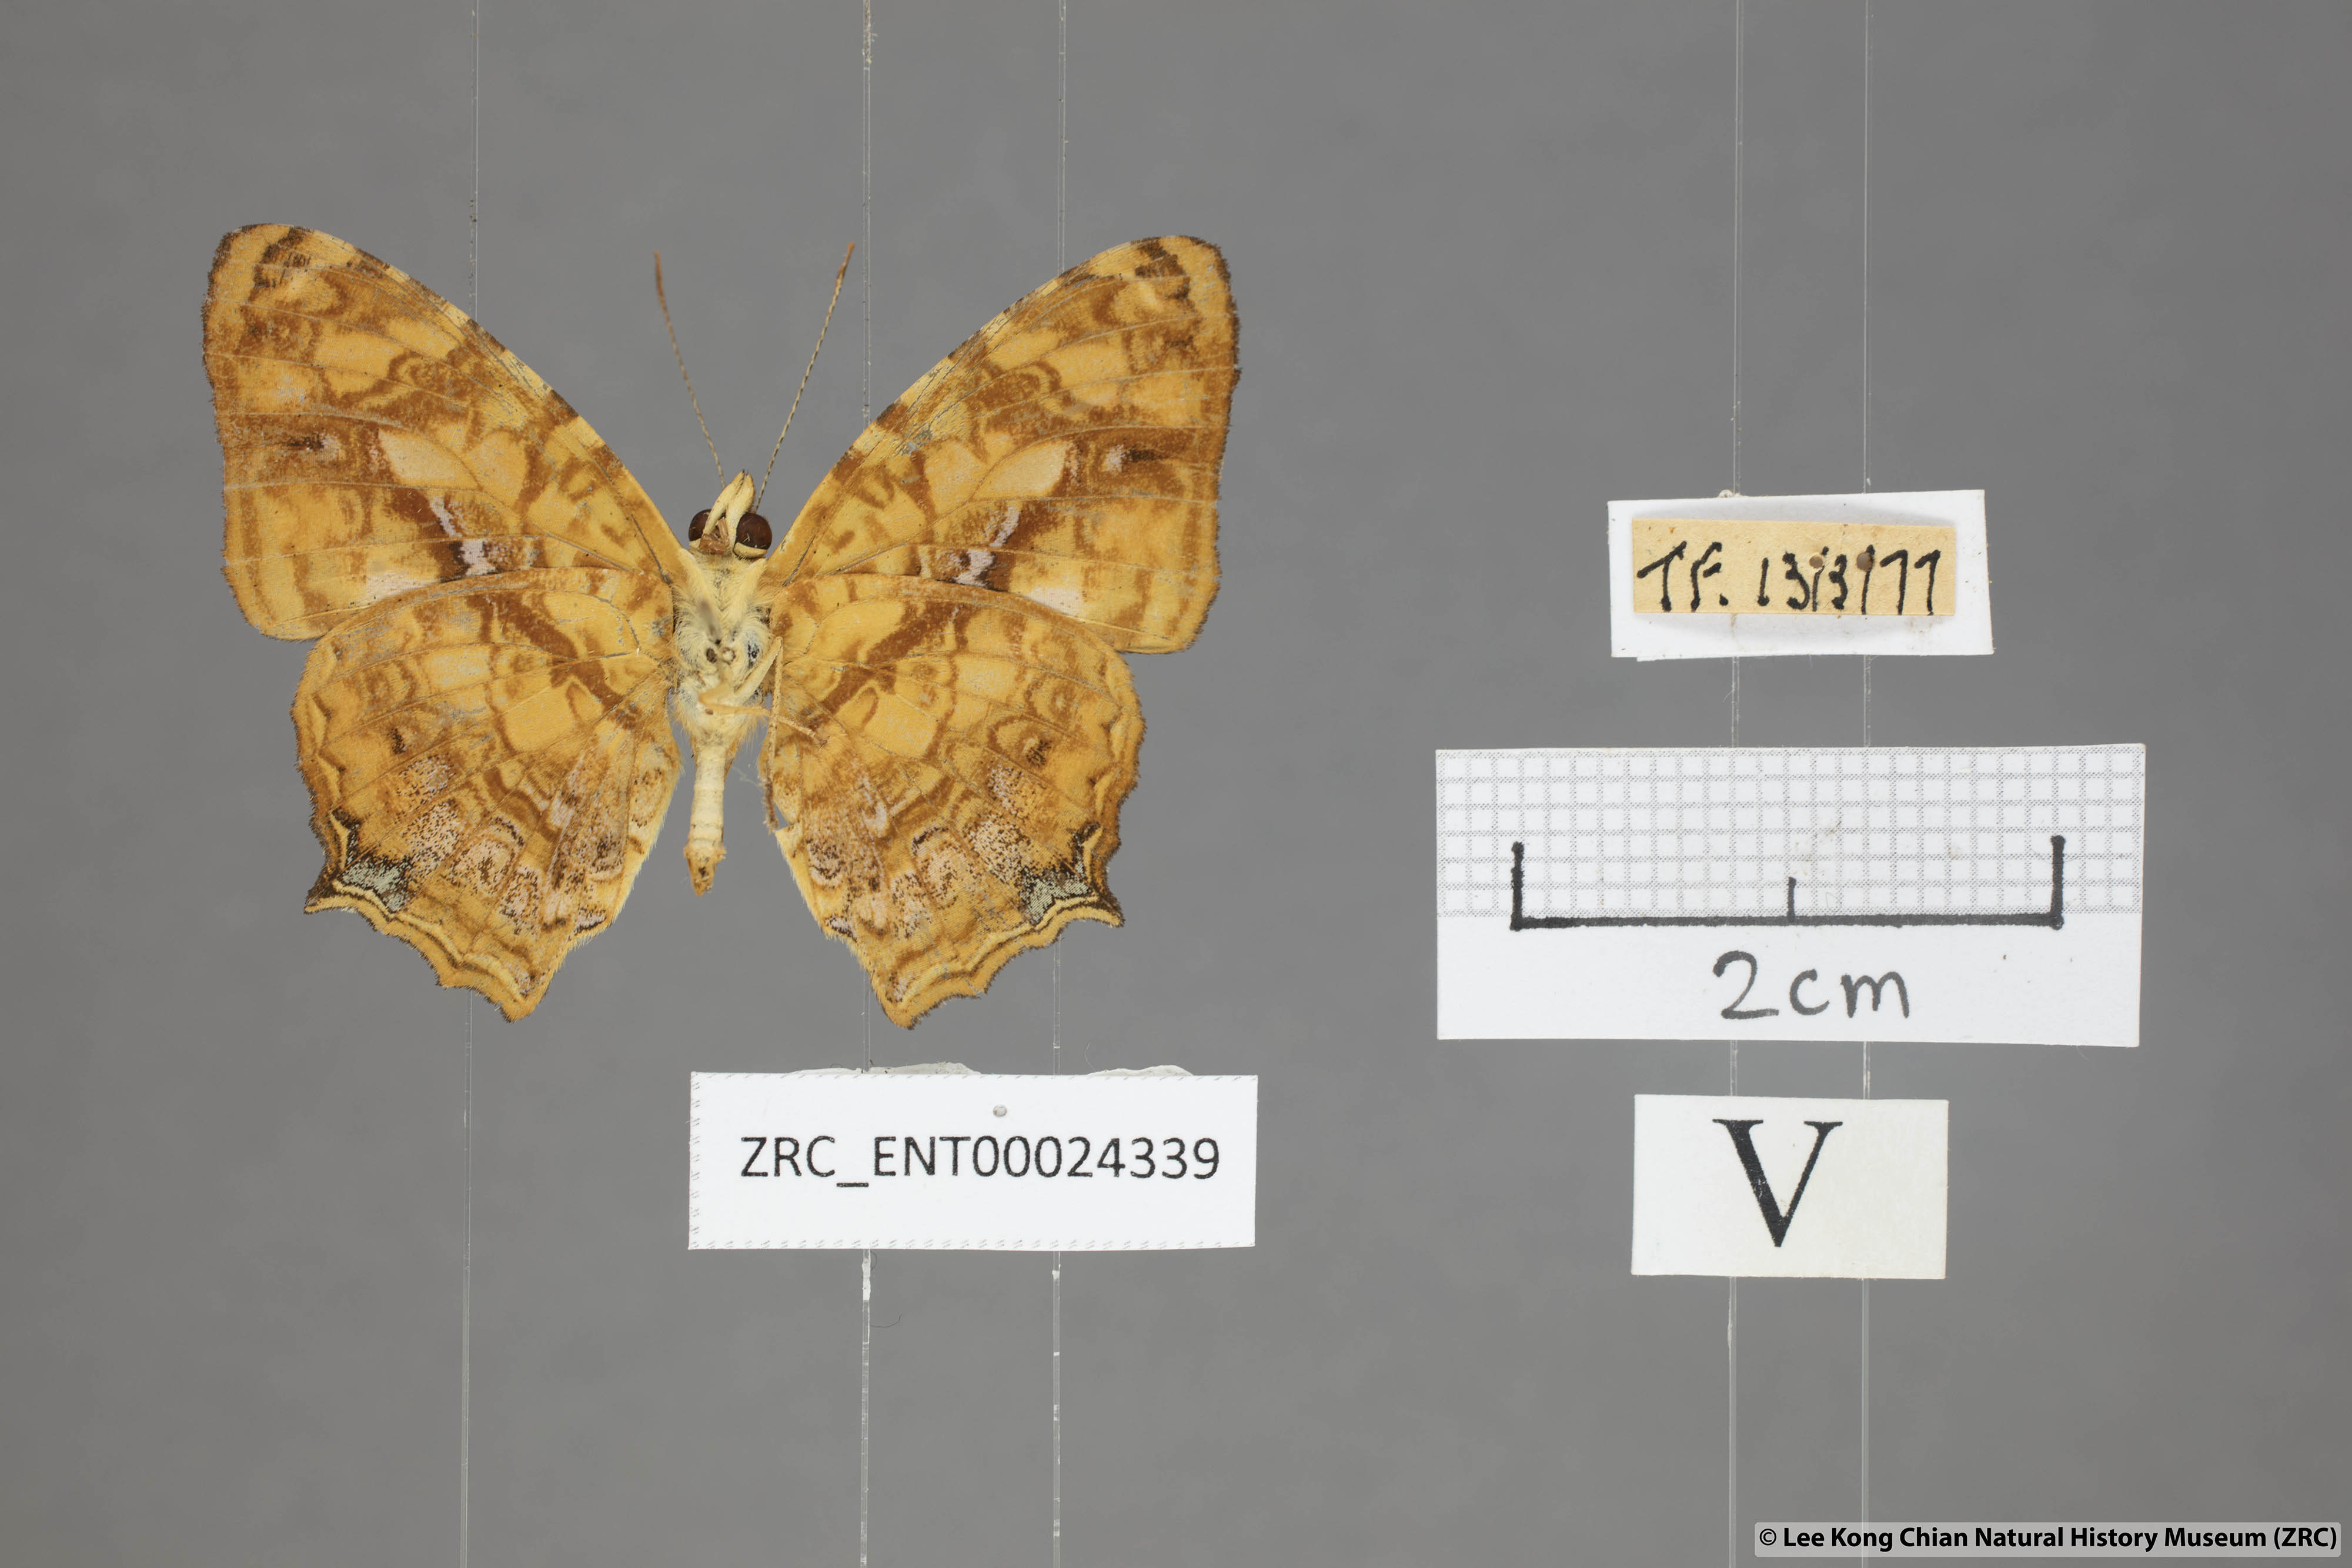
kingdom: Animalia
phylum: Arthropoda
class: Insecta
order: Lepidoptera
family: Nymphalidae
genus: Symbrenthia
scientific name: Symbrenthia hippoclus
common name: Common jester
